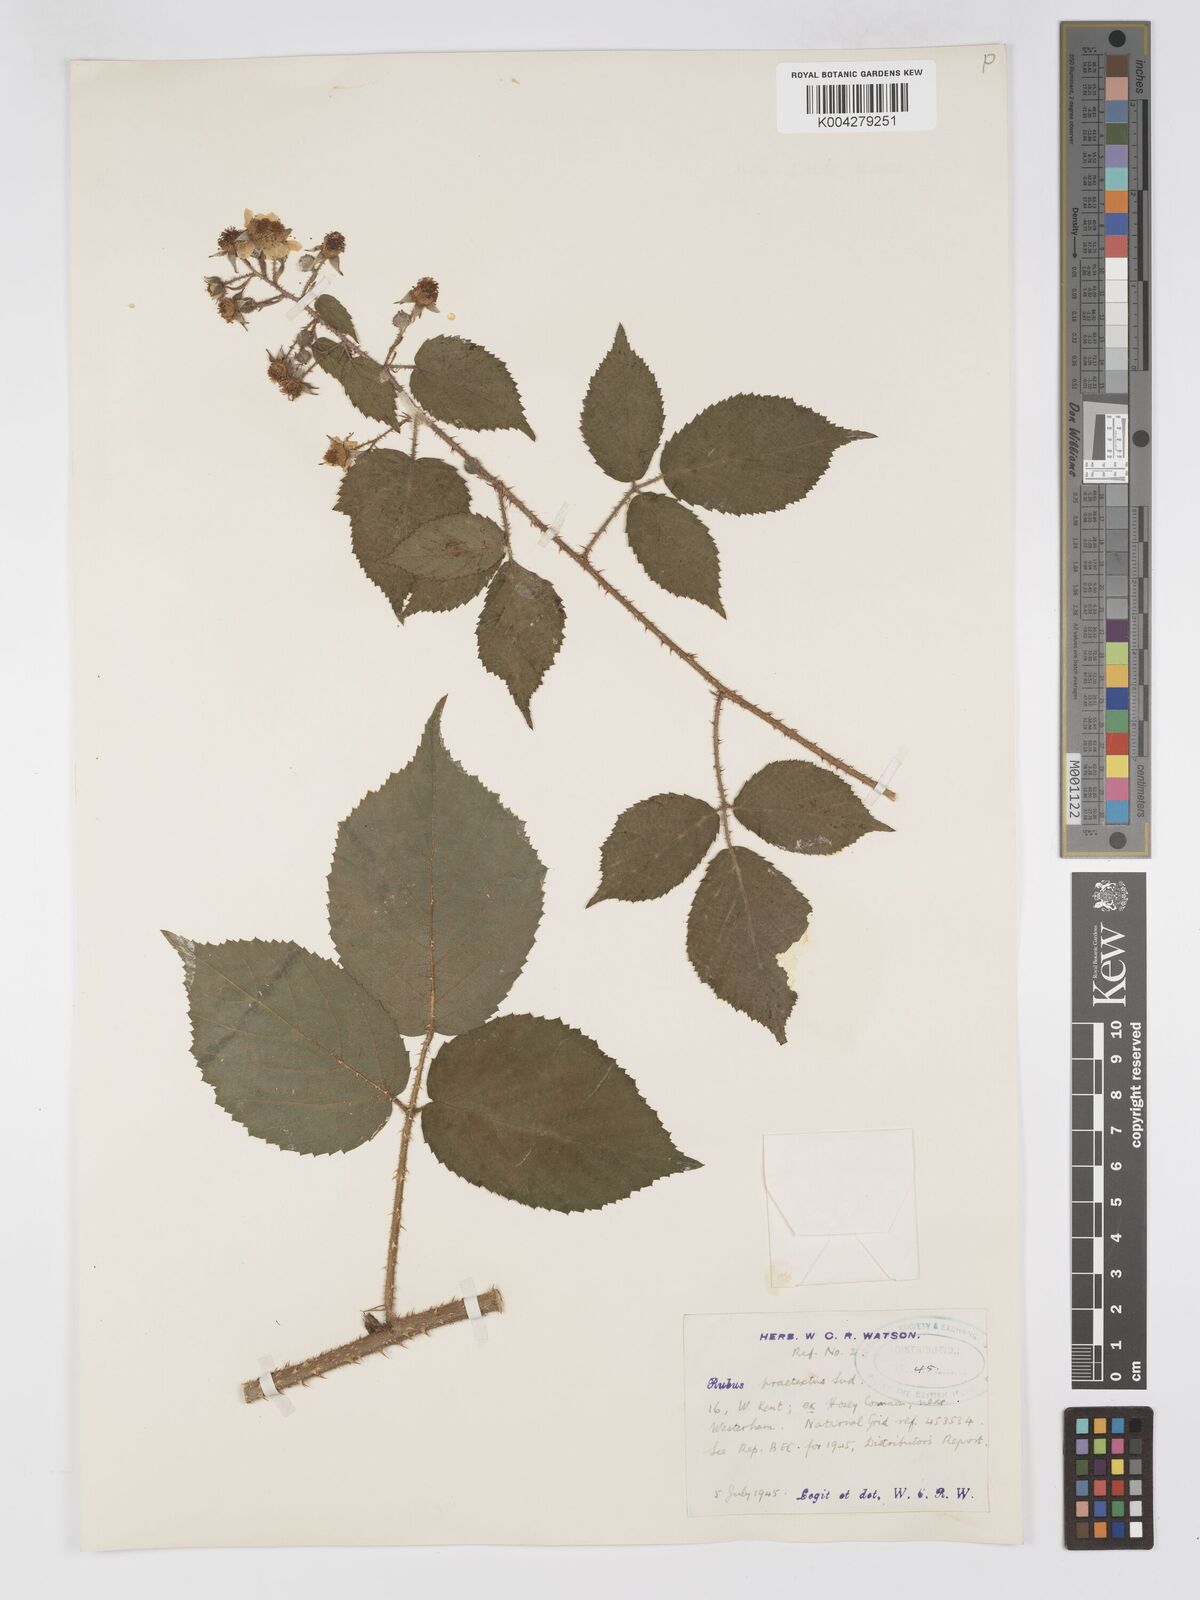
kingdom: Plantae
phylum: Tracheophyta
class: Magnoliopsida
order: Rosales
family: Rosaceae
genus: Rubus
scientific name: Rubus praetextus
